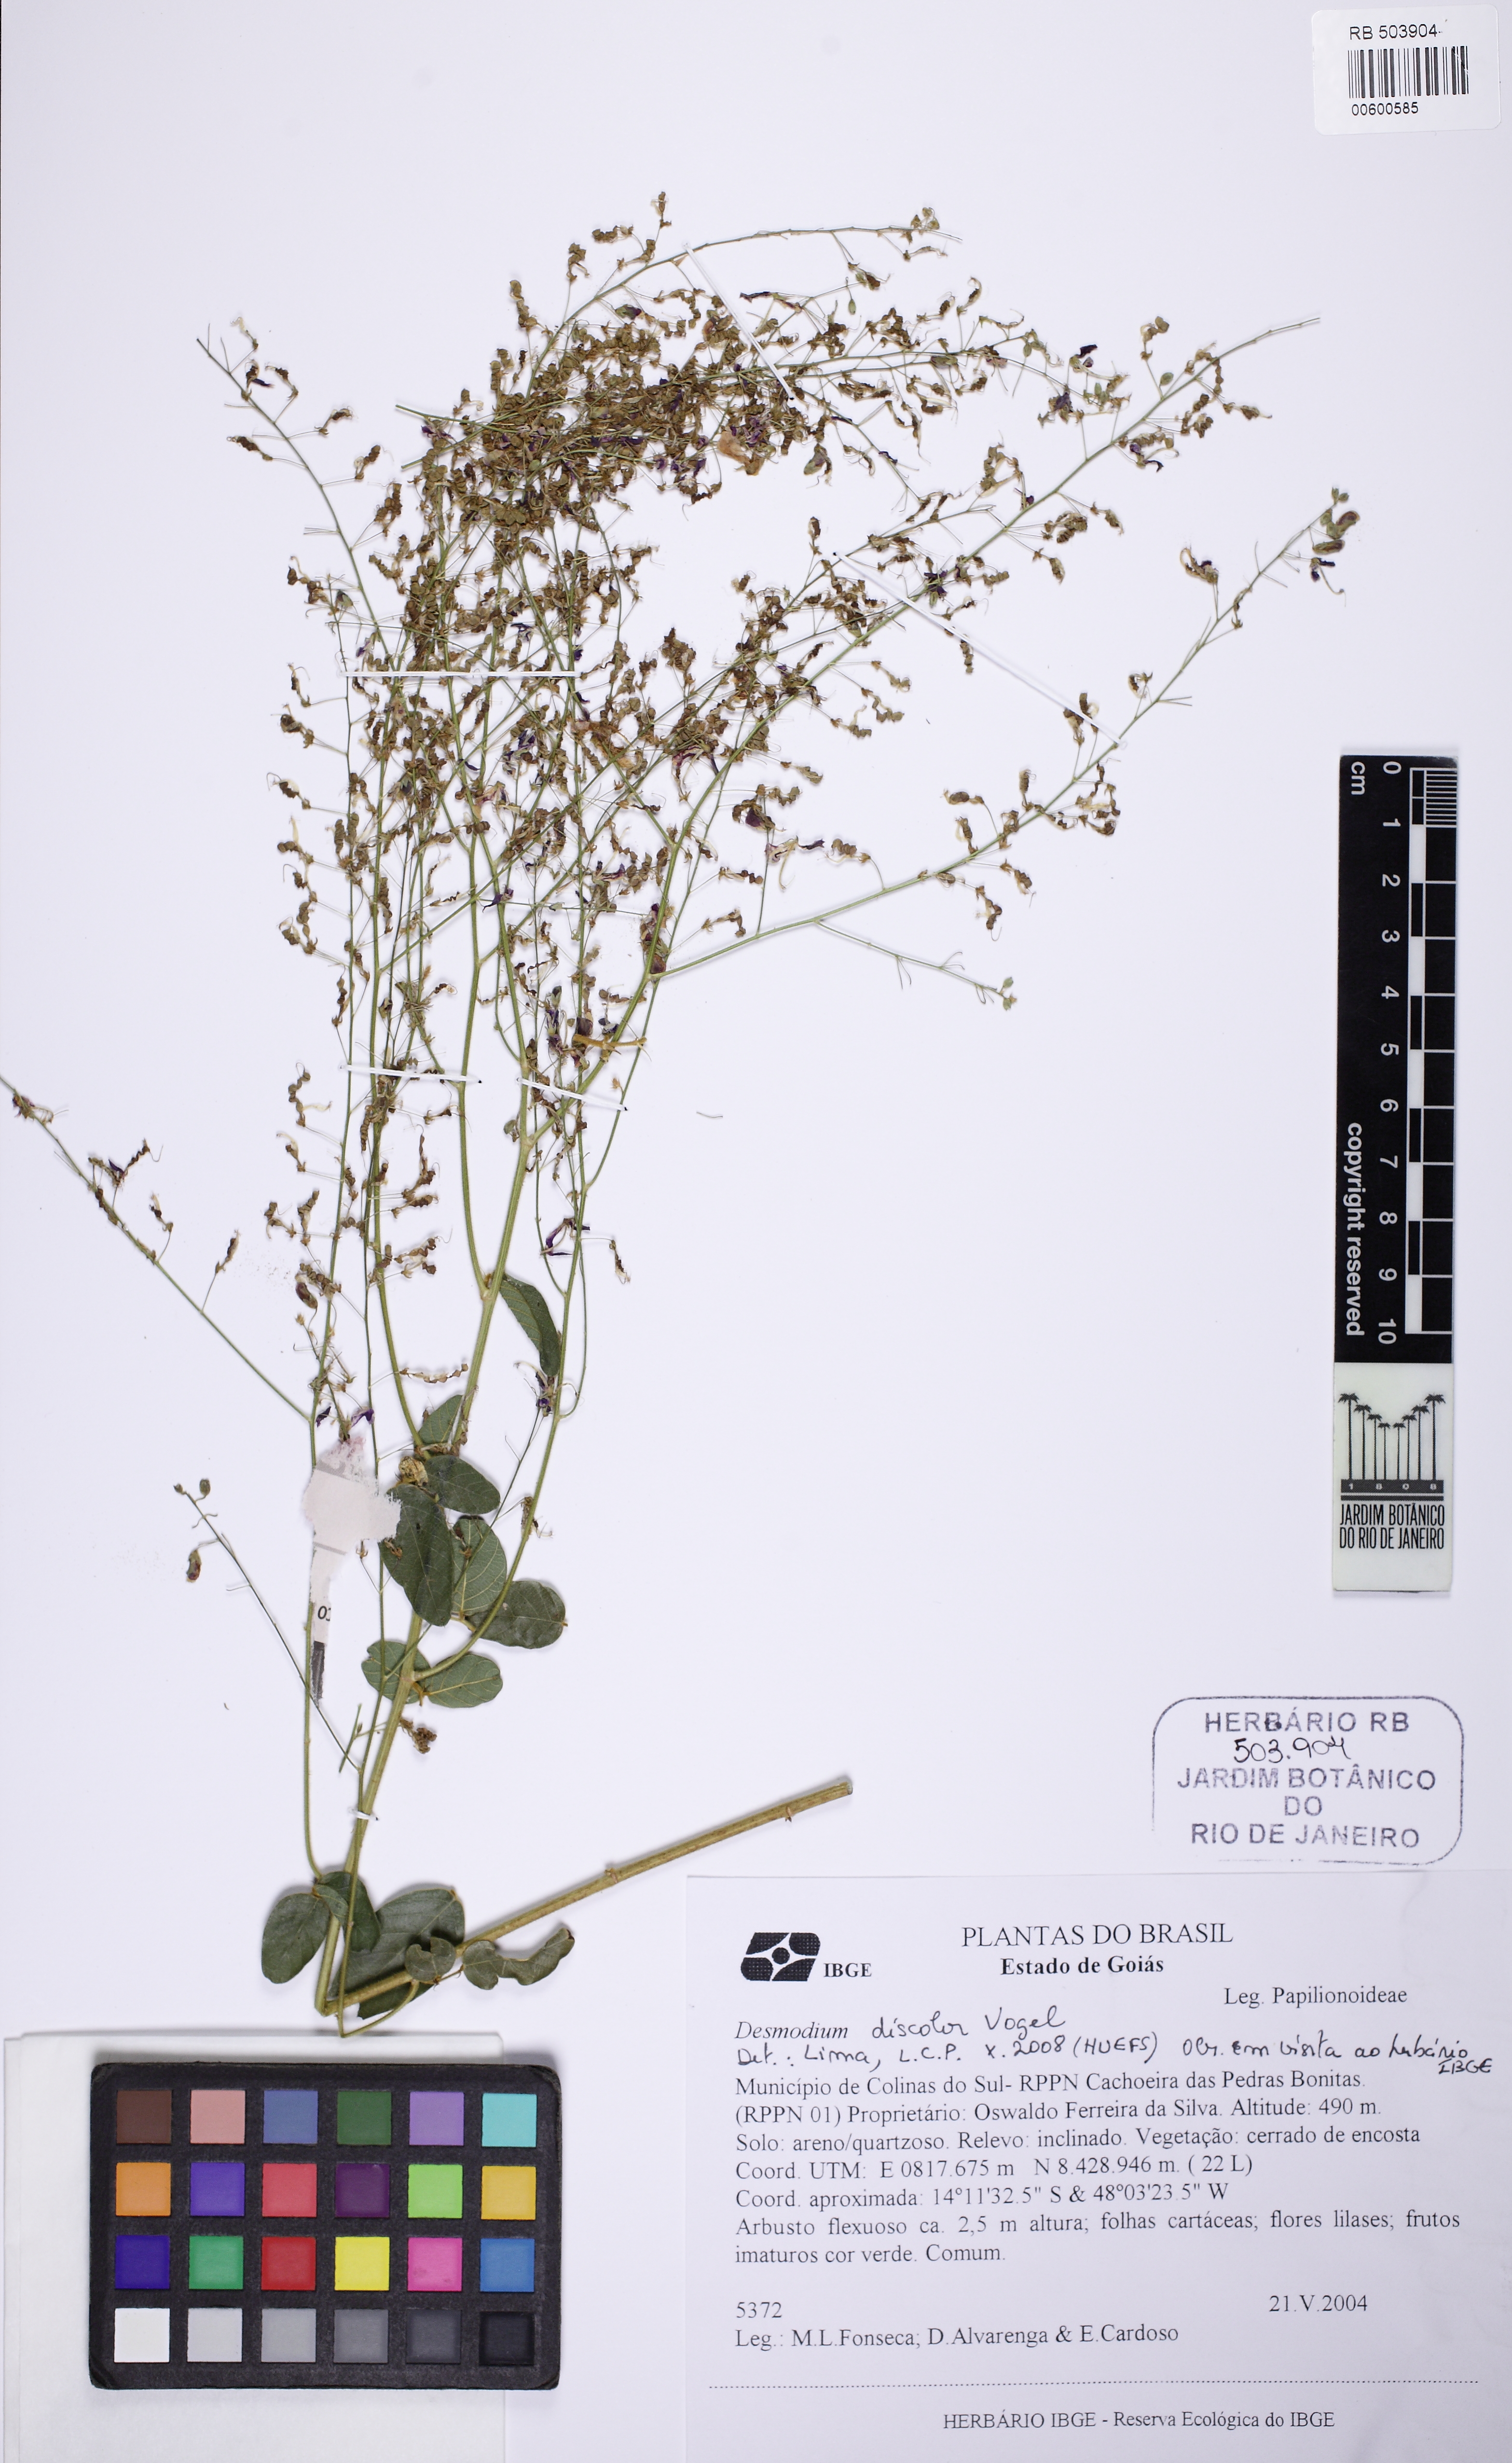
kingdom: Plantae
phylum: Tracheophyta
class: Magnoliopsida
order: Fabales
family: Fabaceae
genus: Desmodium
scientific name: Desmodium subsecundum
